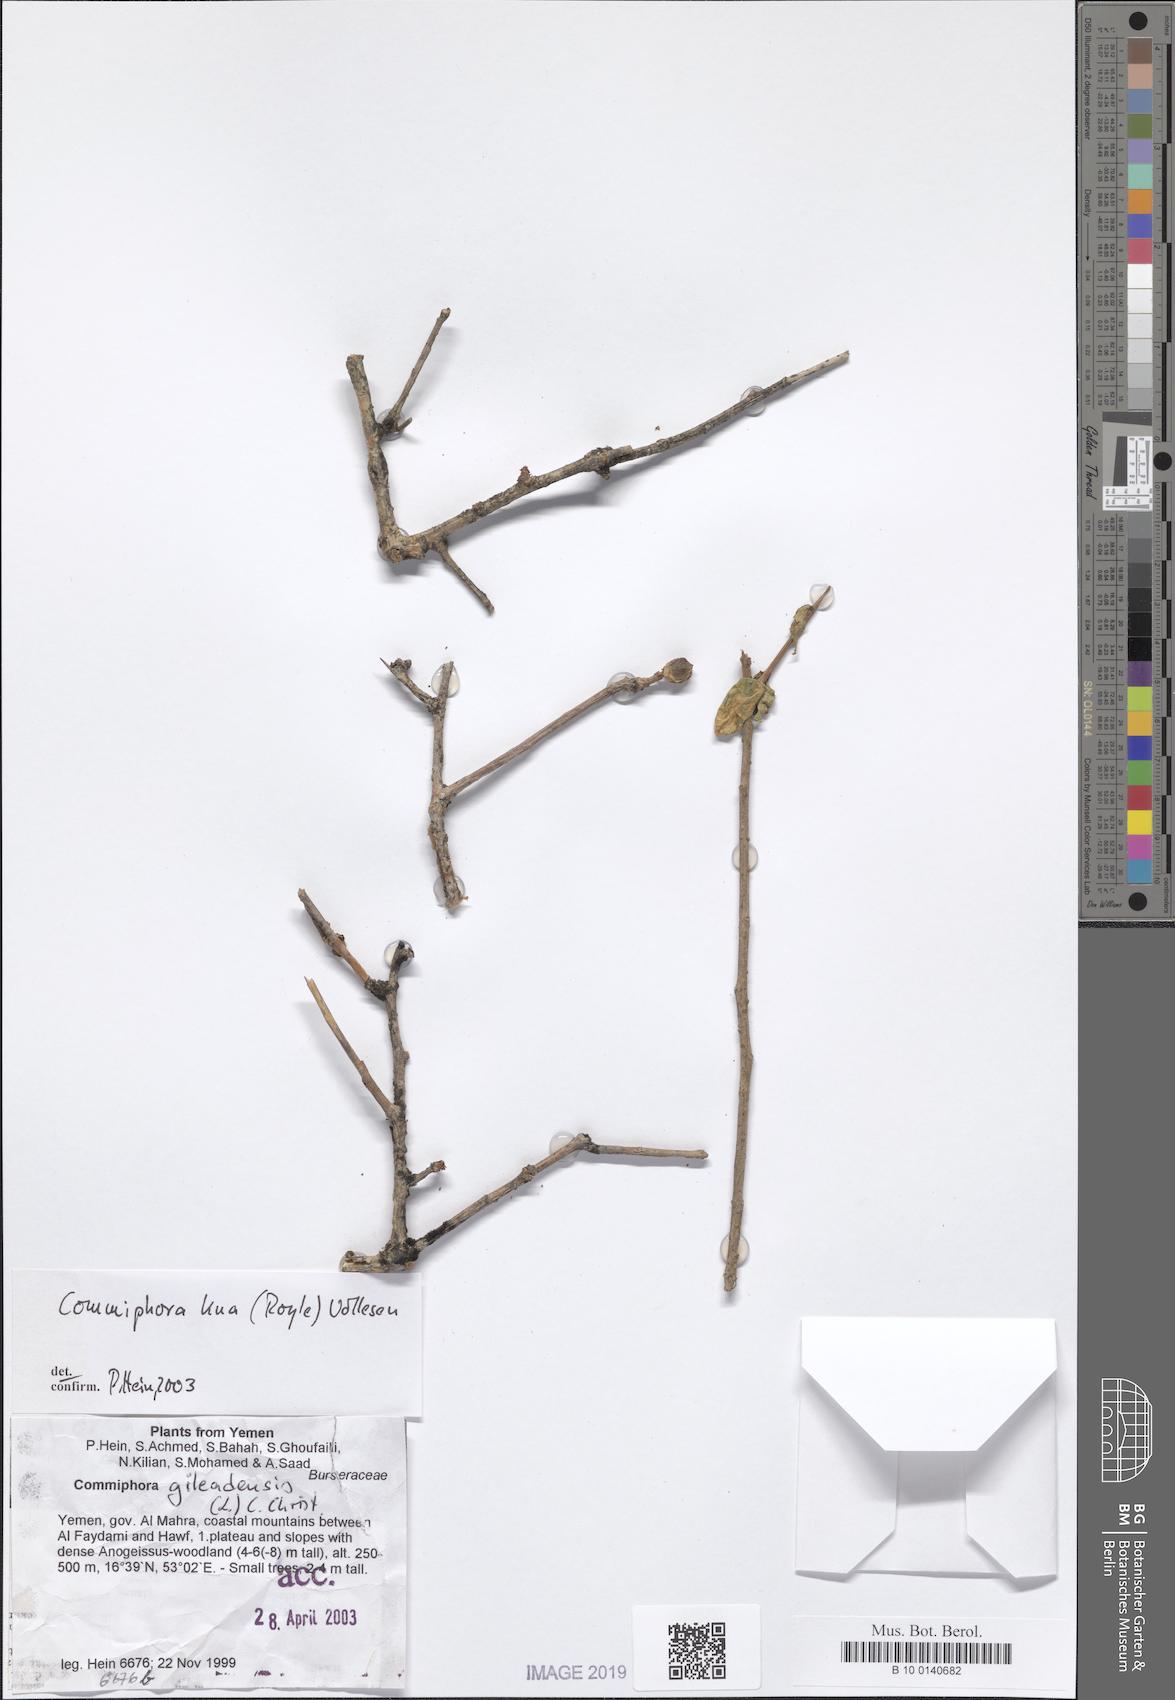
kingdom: Plantae
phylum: Tracheophyta
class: Magnoliopsida
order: Sapindales
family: Burseraceae
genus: Commiphora
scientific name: Commiphora kua
